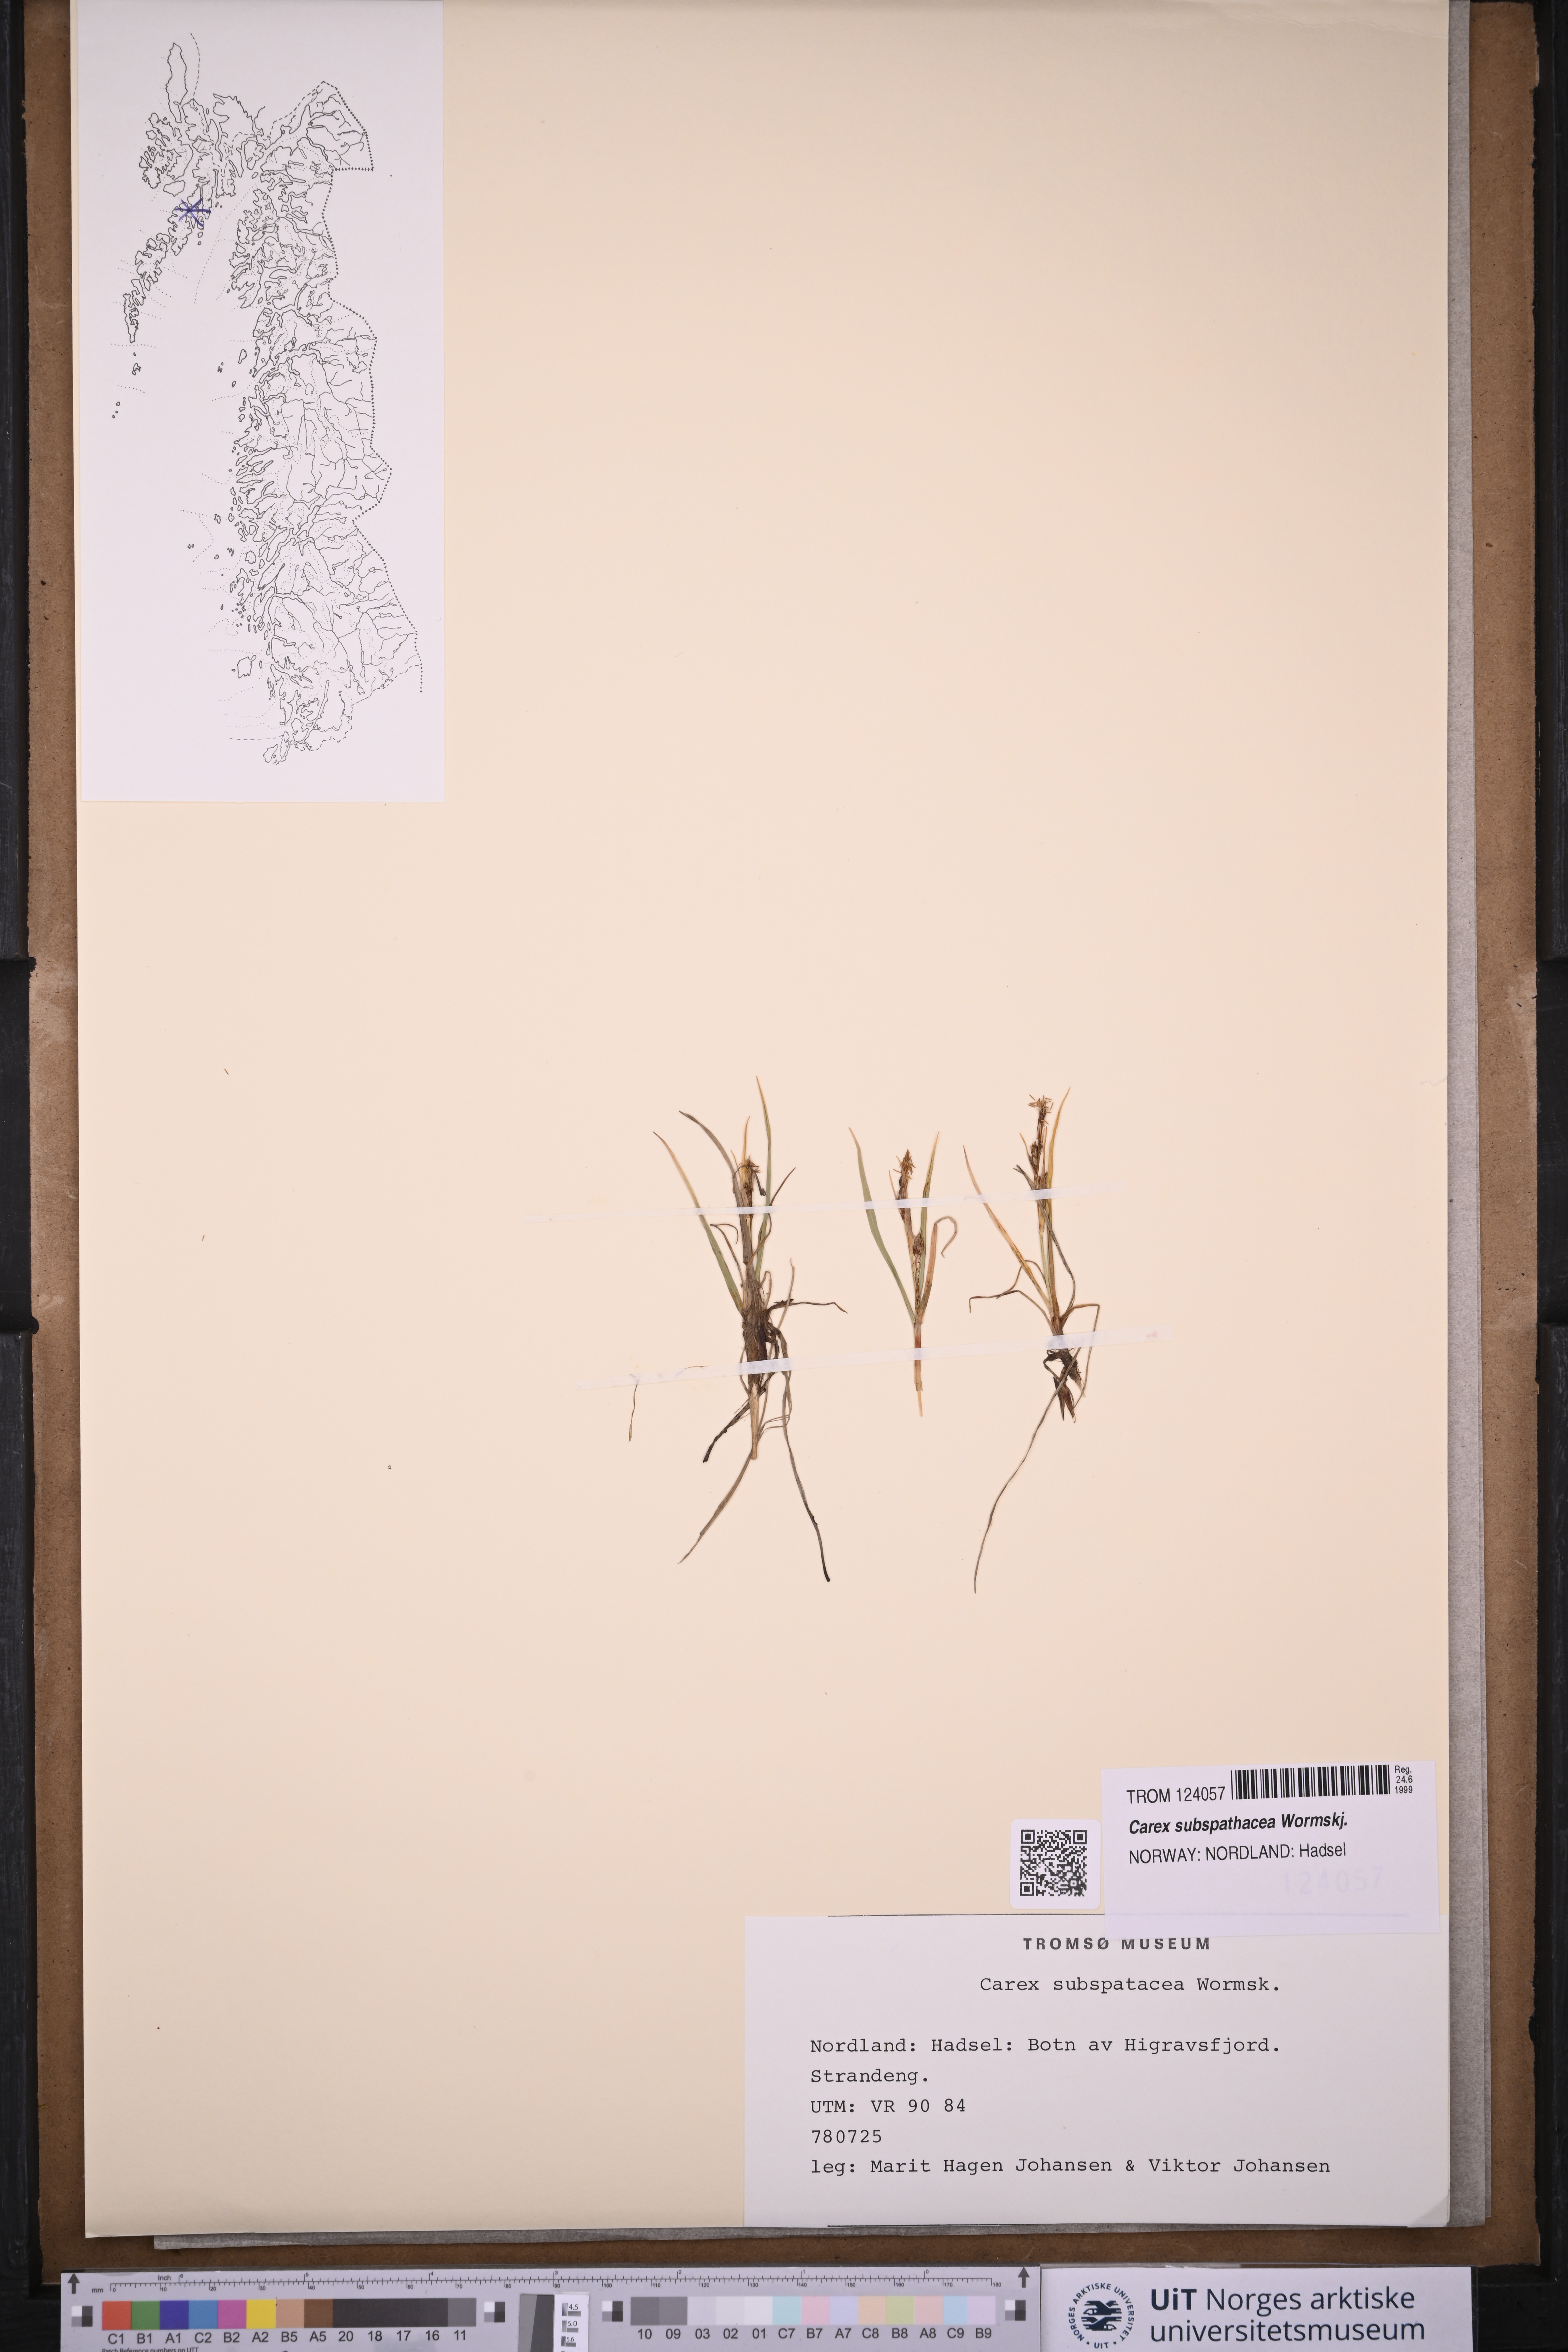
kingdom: Plantae
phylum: Tracheophyta
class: Liliopsida
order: Poales
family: Cyperaceae
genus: Carex
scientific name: Carex subspathacea
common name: Hoppner's sedge
